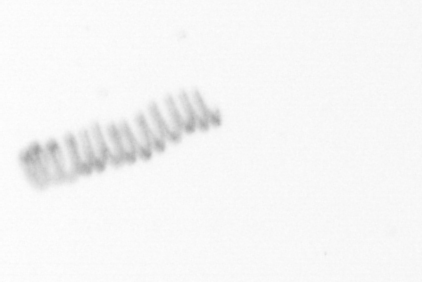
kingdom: Chromista
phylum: Ochrophyta
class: Bacillariophyceae
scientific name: Bacillariophyceae
